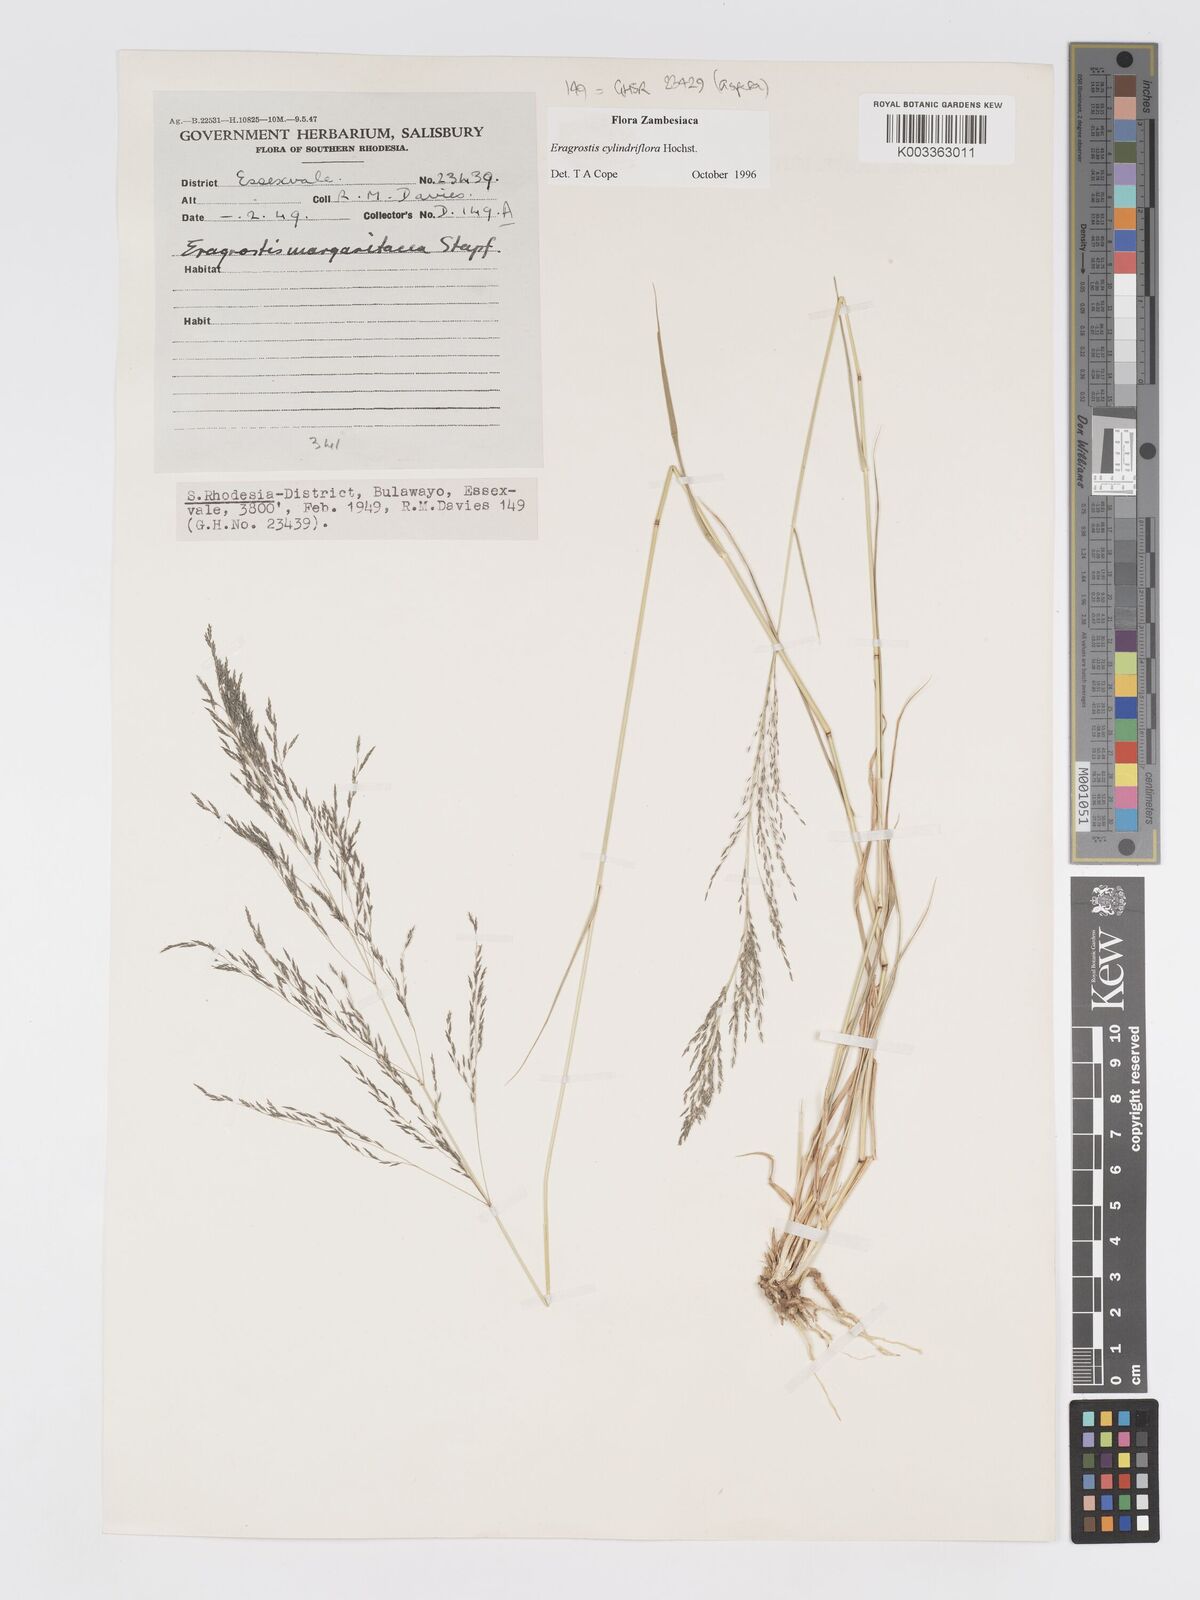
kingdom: Plantae
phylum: Tracheophyta
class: Liliopsida
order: Poales
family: Poaceae
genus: Eragrostis
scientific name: Eragrostis cylindriflora
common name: Cylinderflower lovegrass
